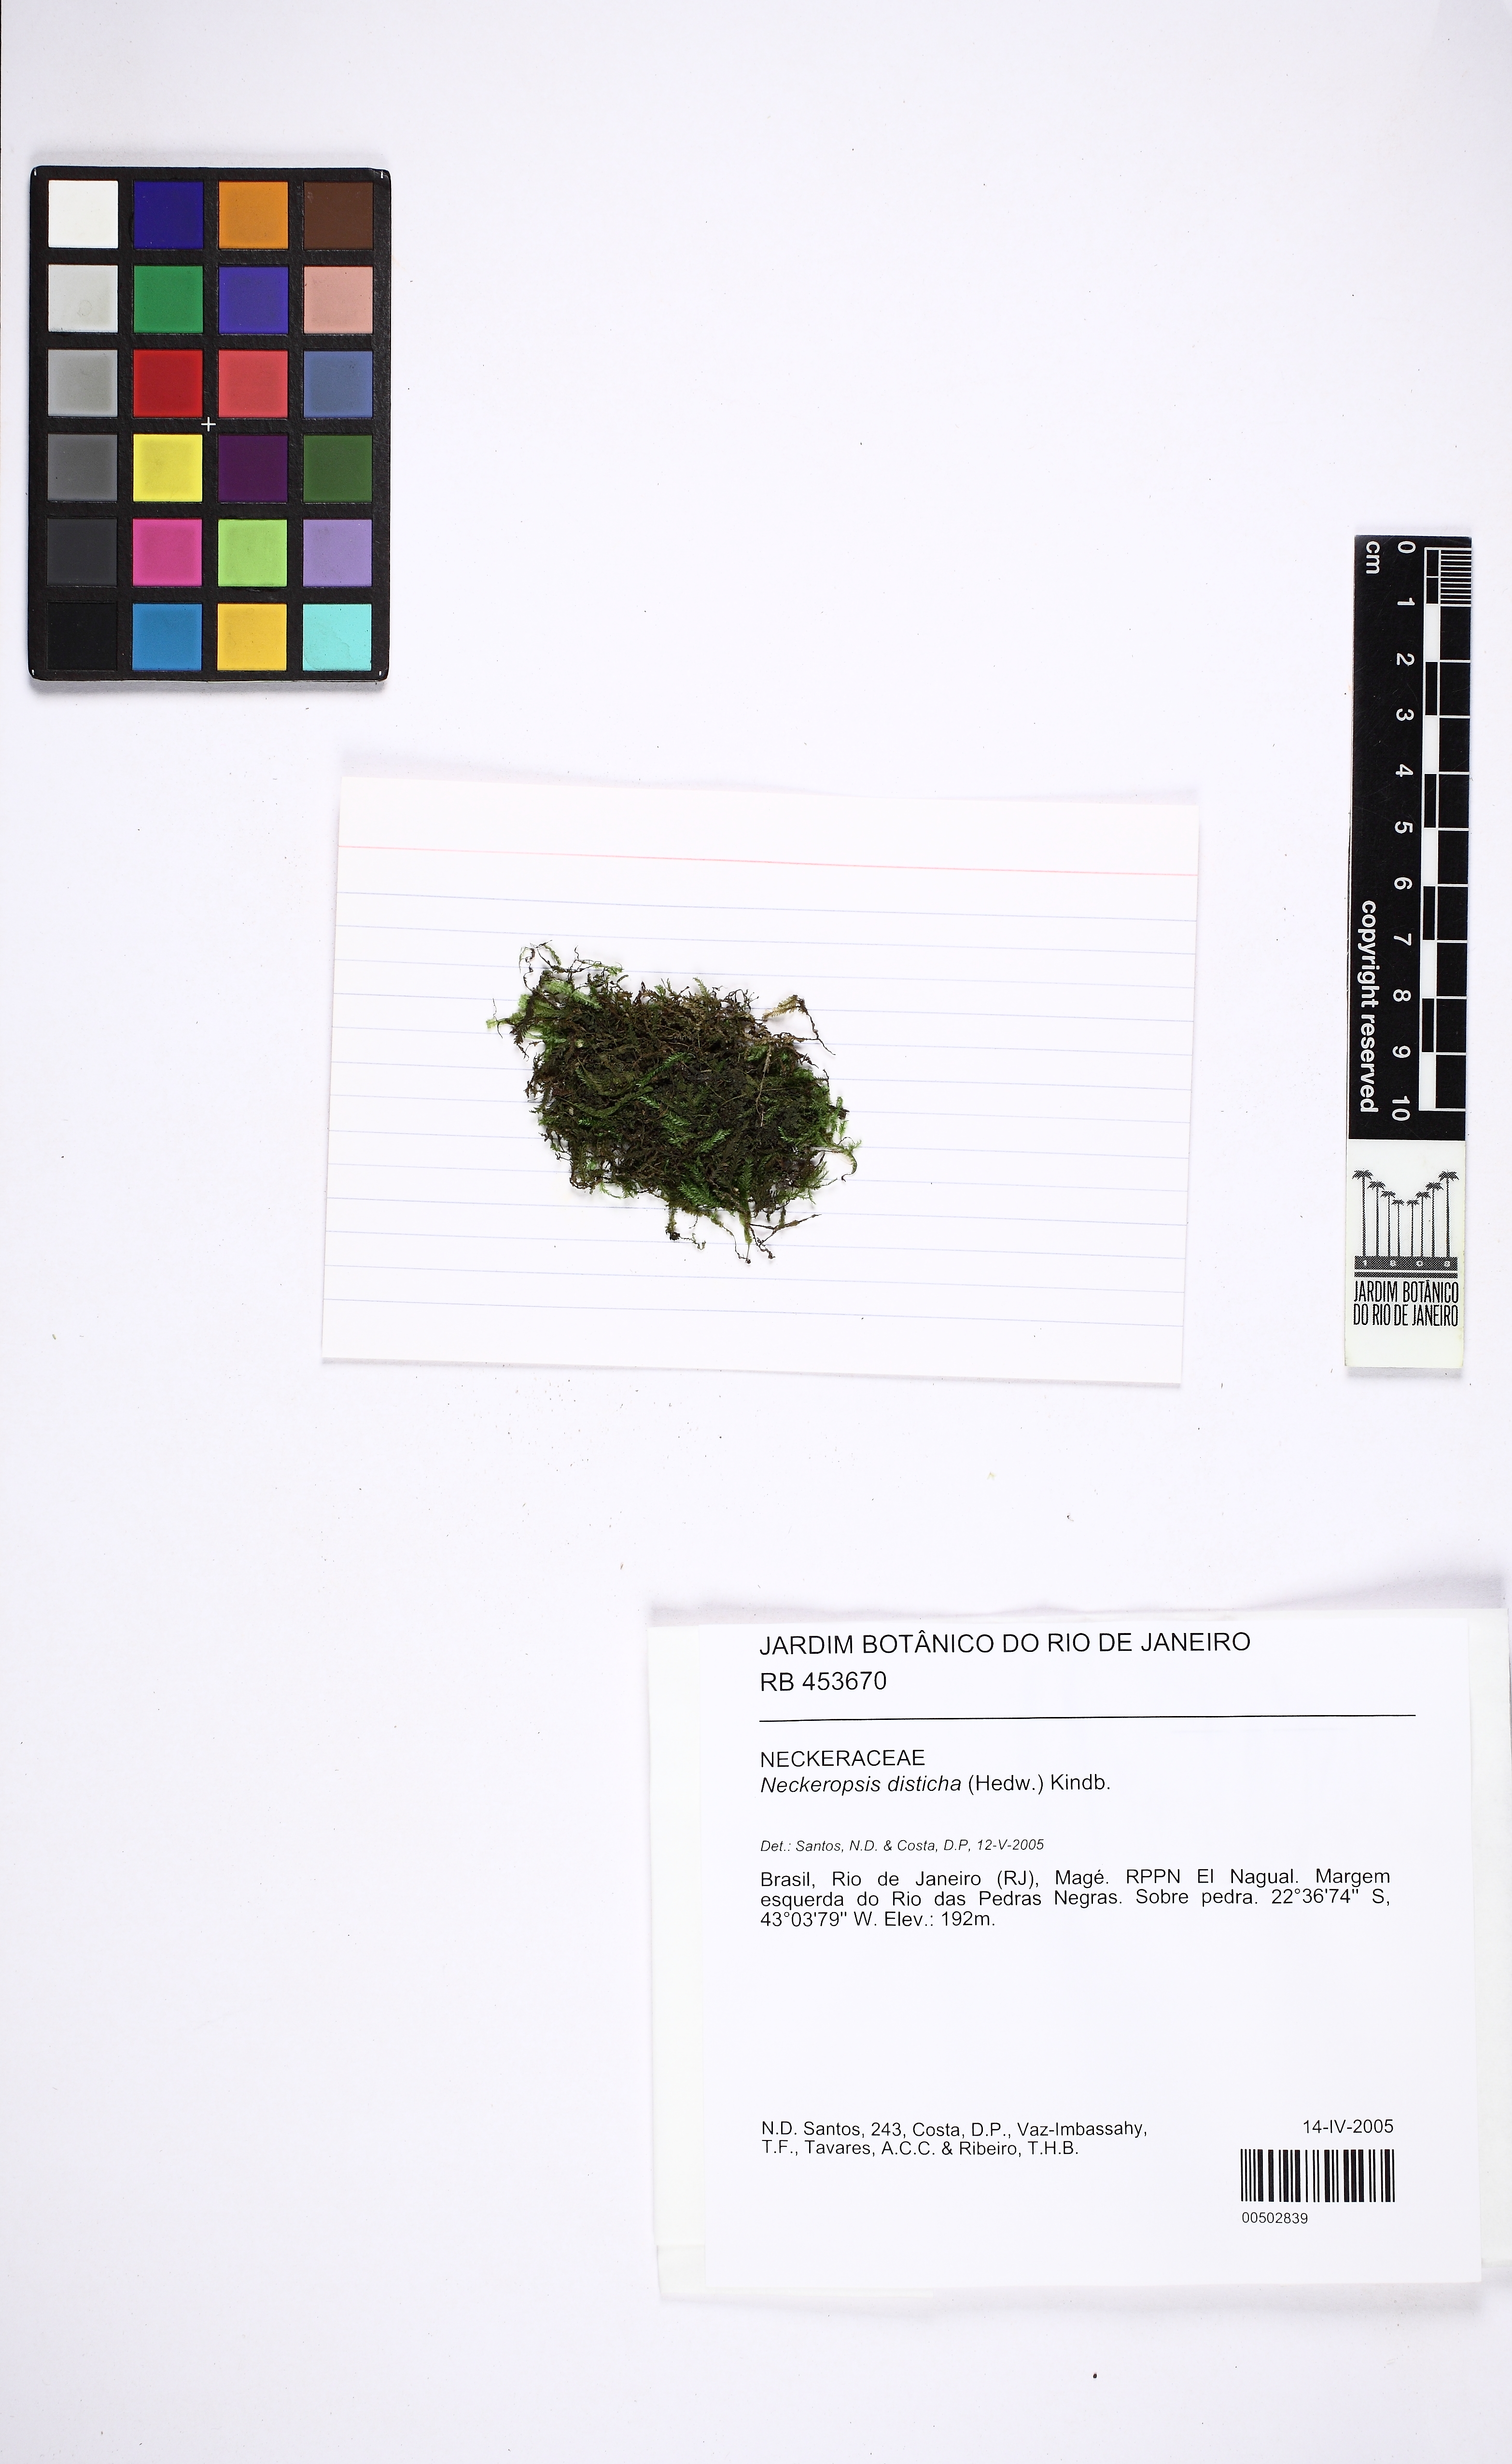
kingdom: Plantae
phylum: Bryophyta
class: Bryopsida
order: Hypnales
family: Neckeraceae
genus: Neckeropsis
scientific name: Neckeropsis disticha
